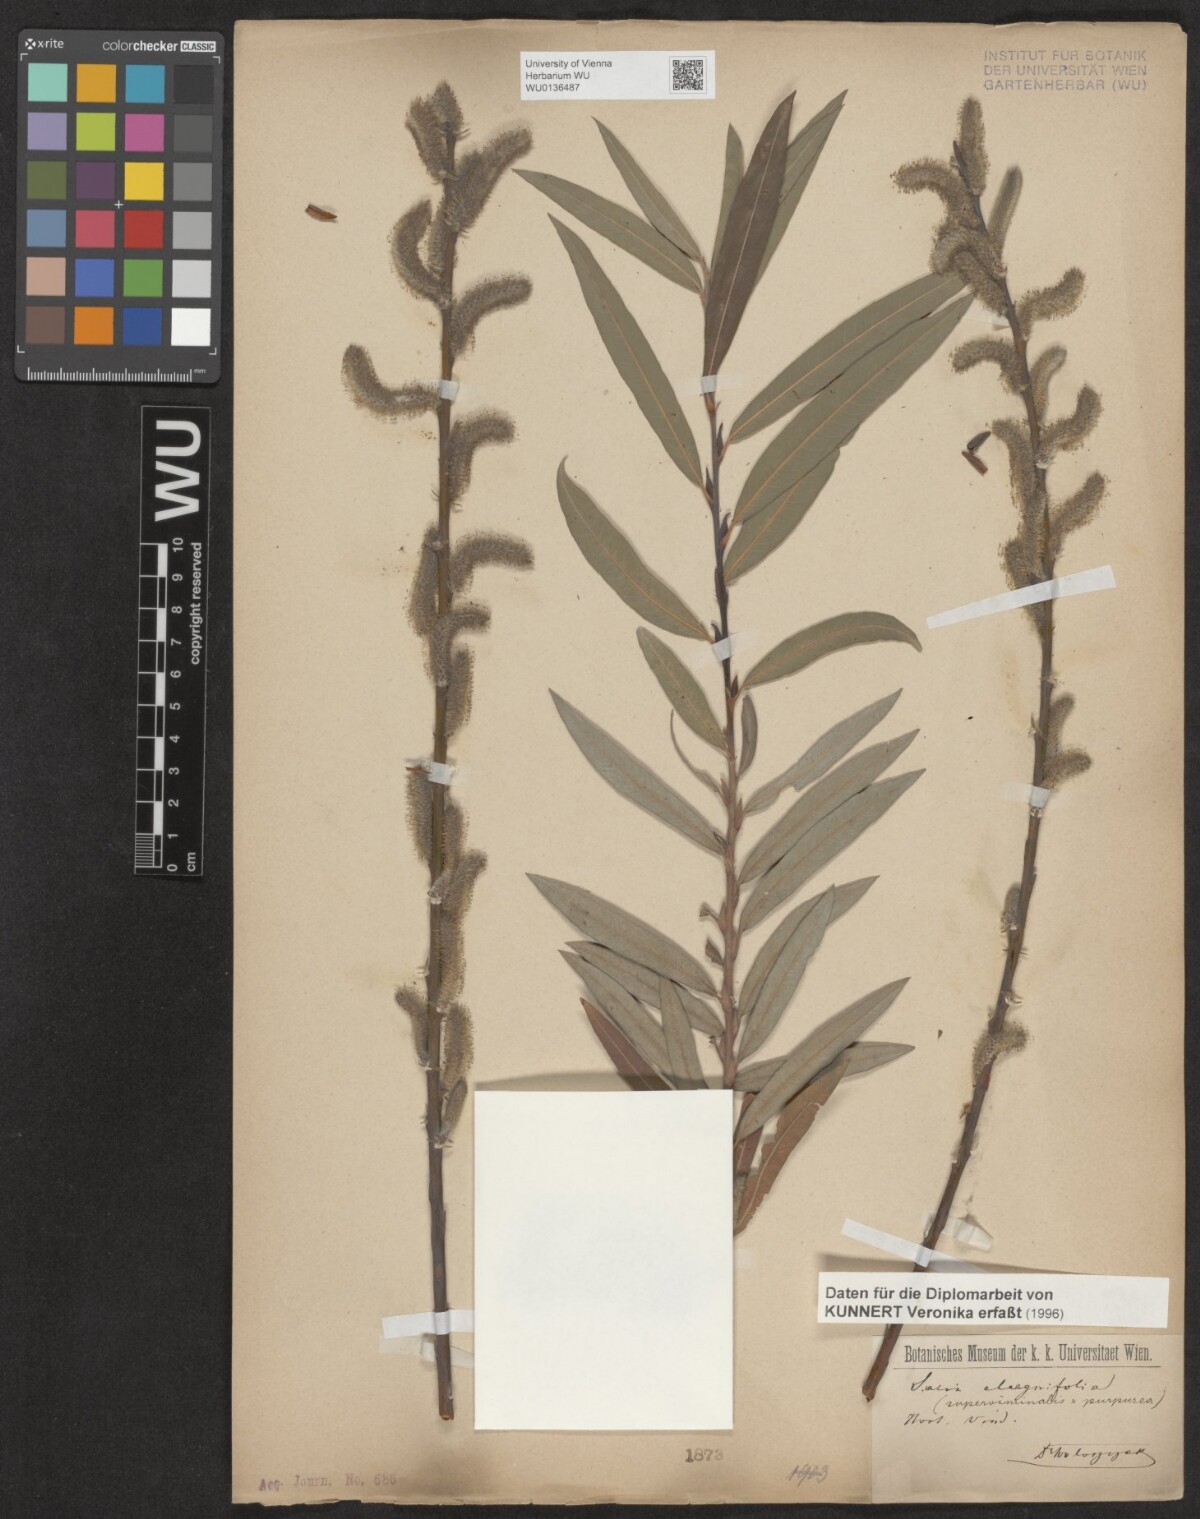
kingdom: Plantae
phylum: Tracheophyta
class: Magnoliopsida
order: Malpighiales
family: Salicaceae
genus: Salix
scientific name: Salix helvetica
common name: Swiss willow
